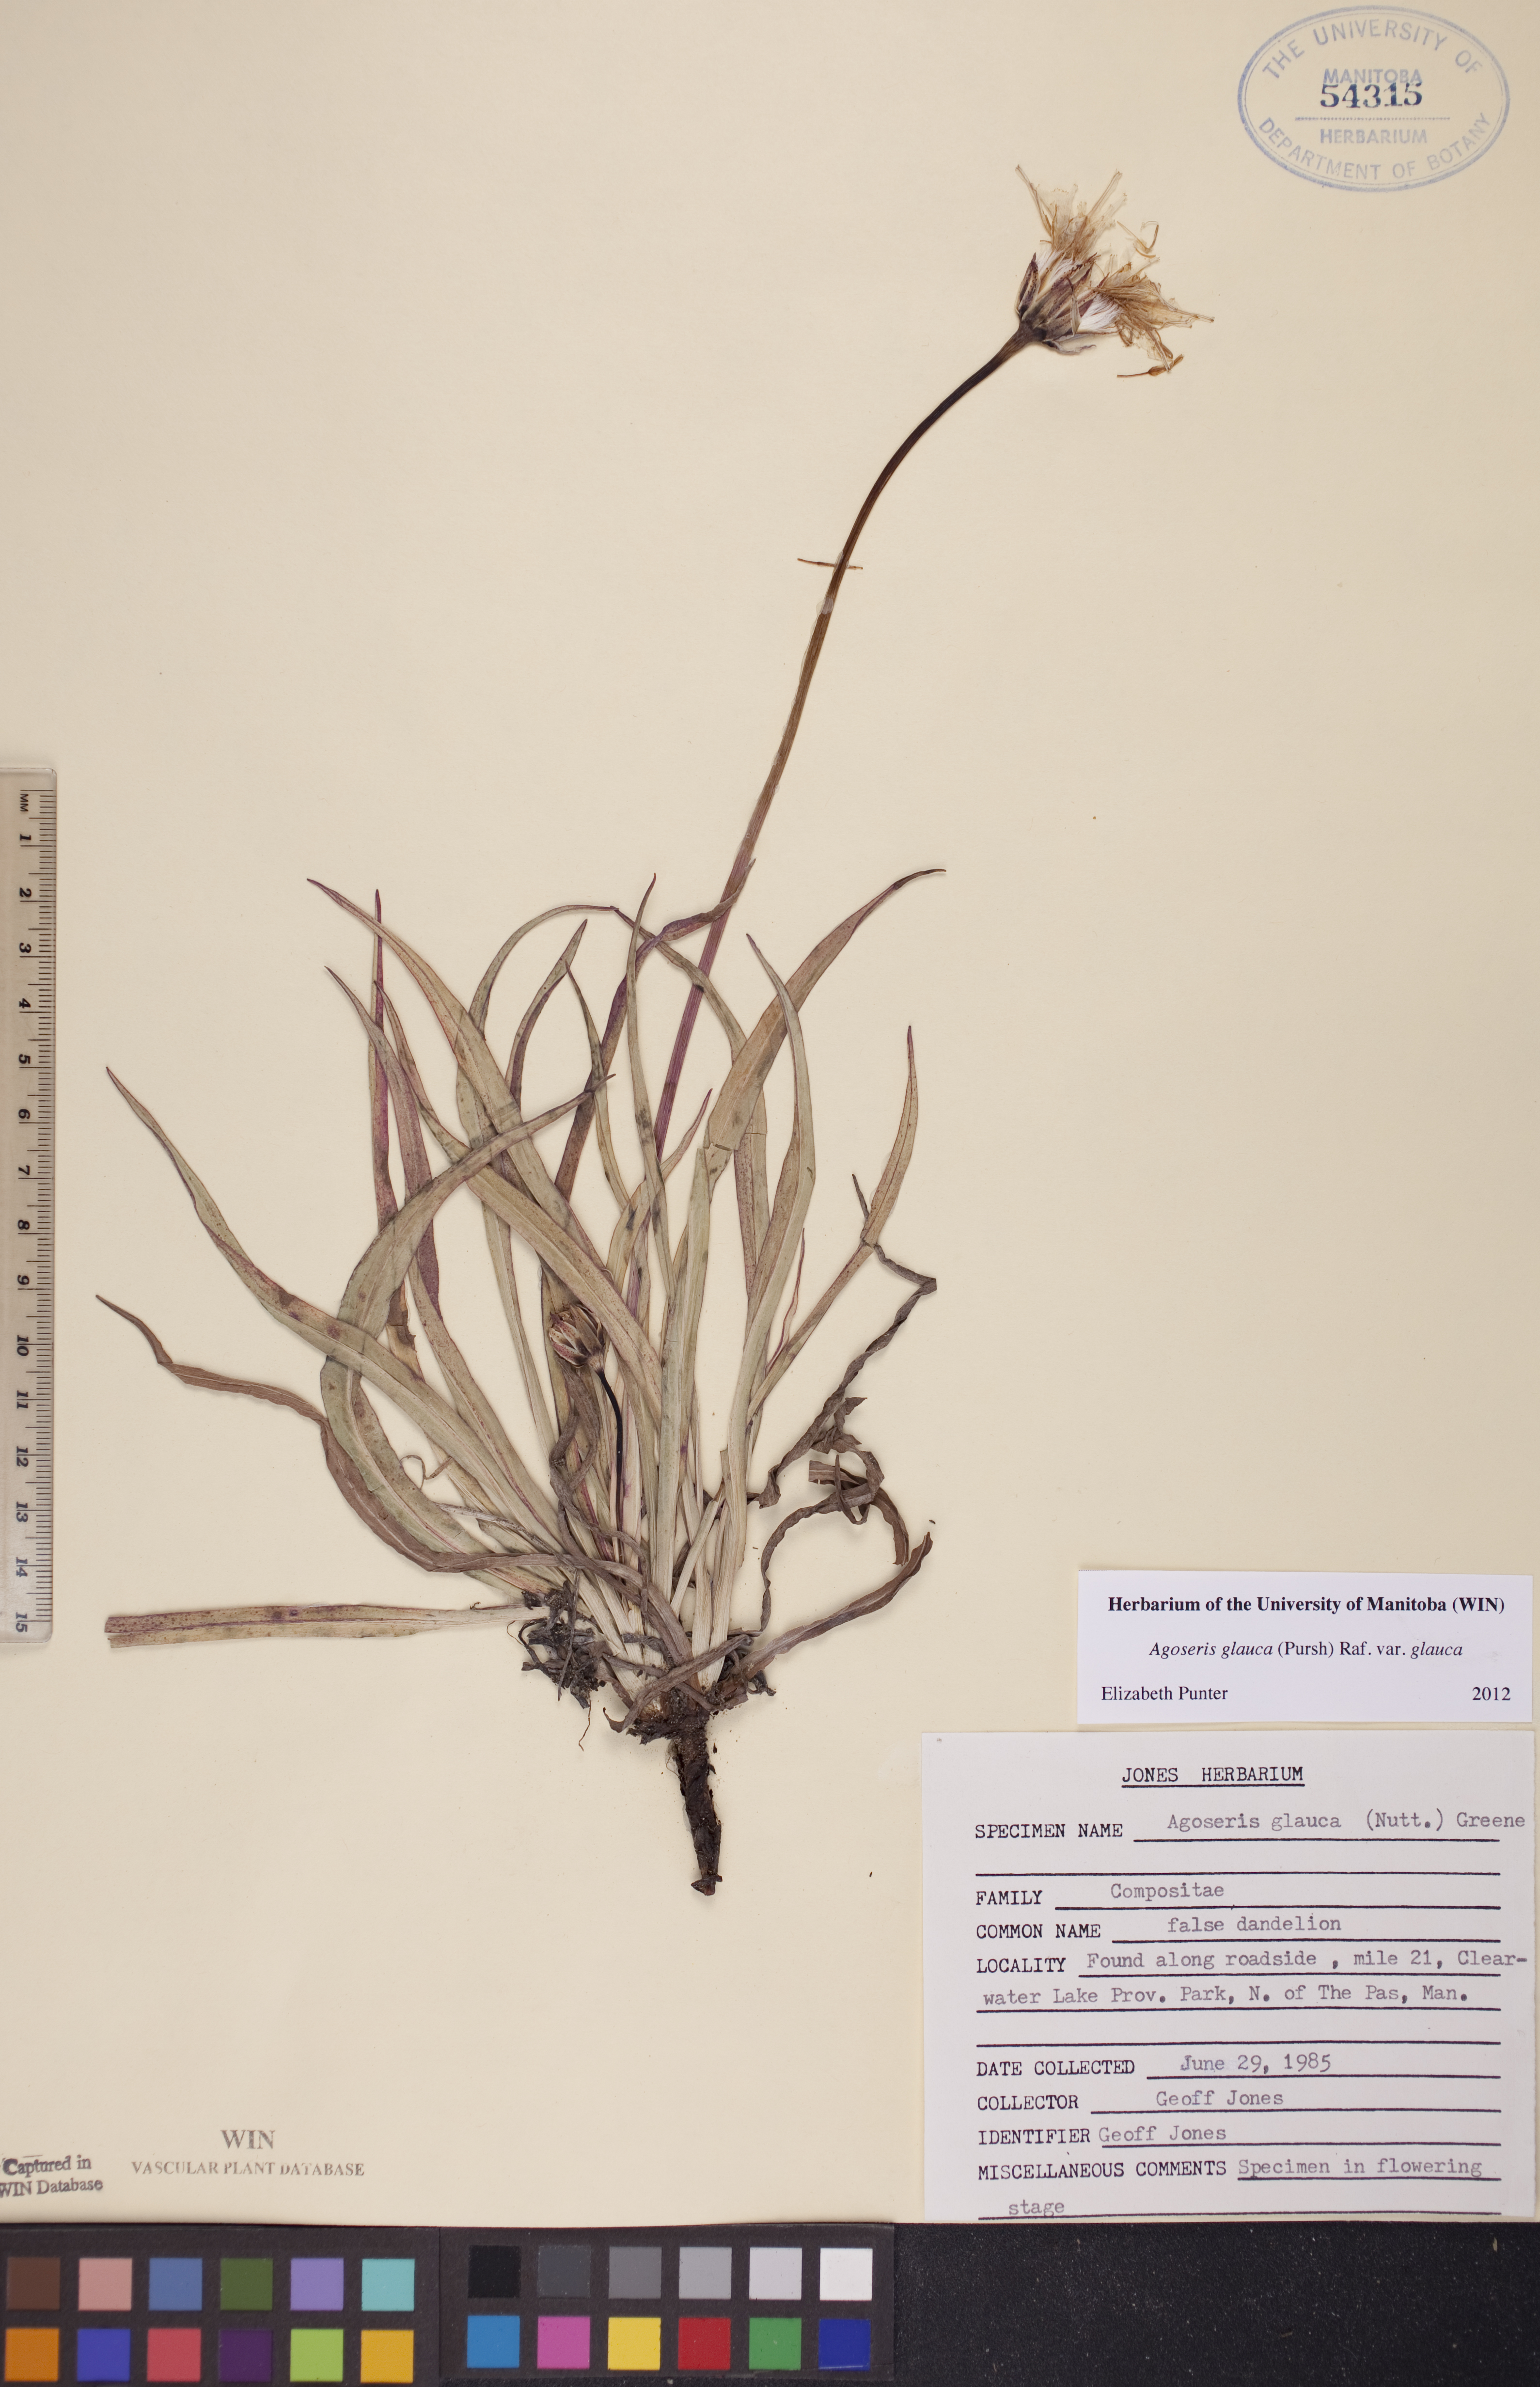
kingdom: Plantae
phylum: Tracheophyta
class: Magnoliopsida
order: Asterales
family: Asteraceae
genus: Agoseris
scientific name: Agoseris glauca
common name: Prairie agoseris
